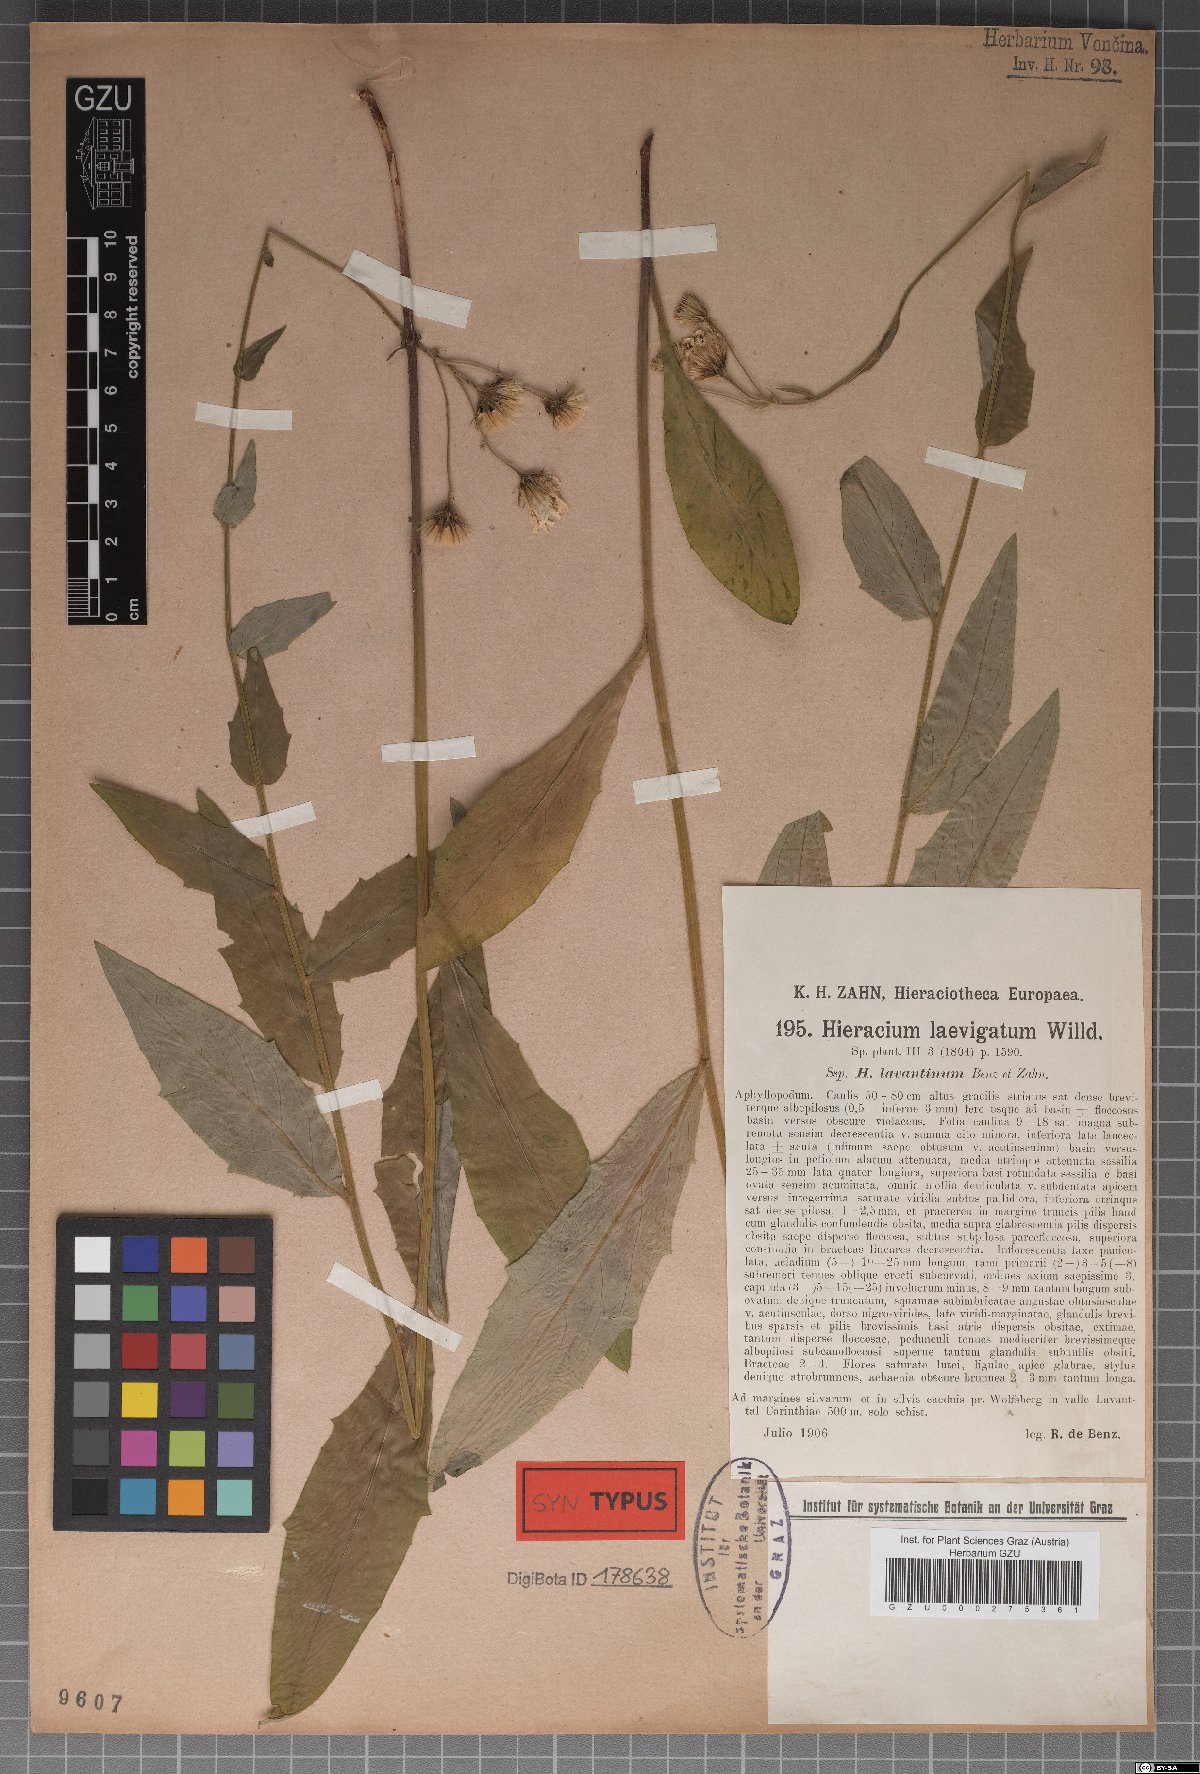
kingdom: Plantae
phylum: Tracheophyta
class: Magnoliopsida
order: Asterales
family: Asteraceae
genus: Hieracium
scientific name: Hieracium laevigatum
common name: Smooth hawkweed
